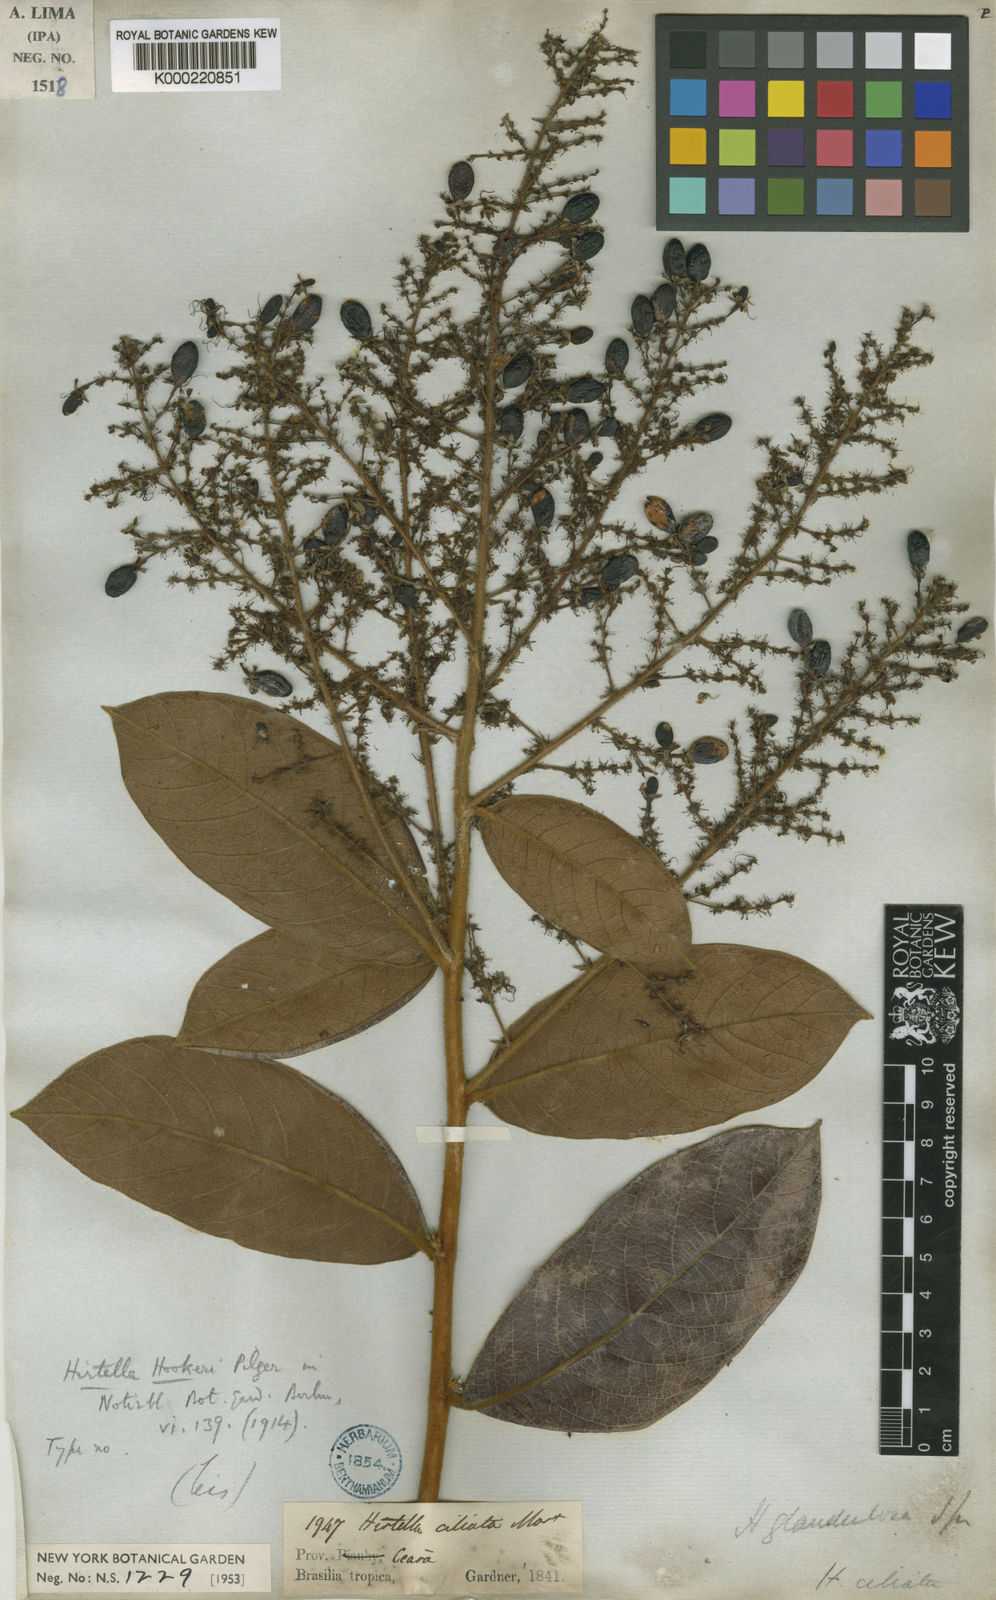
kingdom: Plantae
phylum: Tracheophyta
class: Magnoliopsida
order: Malpighiales
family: Chrysobalanaceae
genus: Hirtella
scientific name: Hirtella glandulosa
